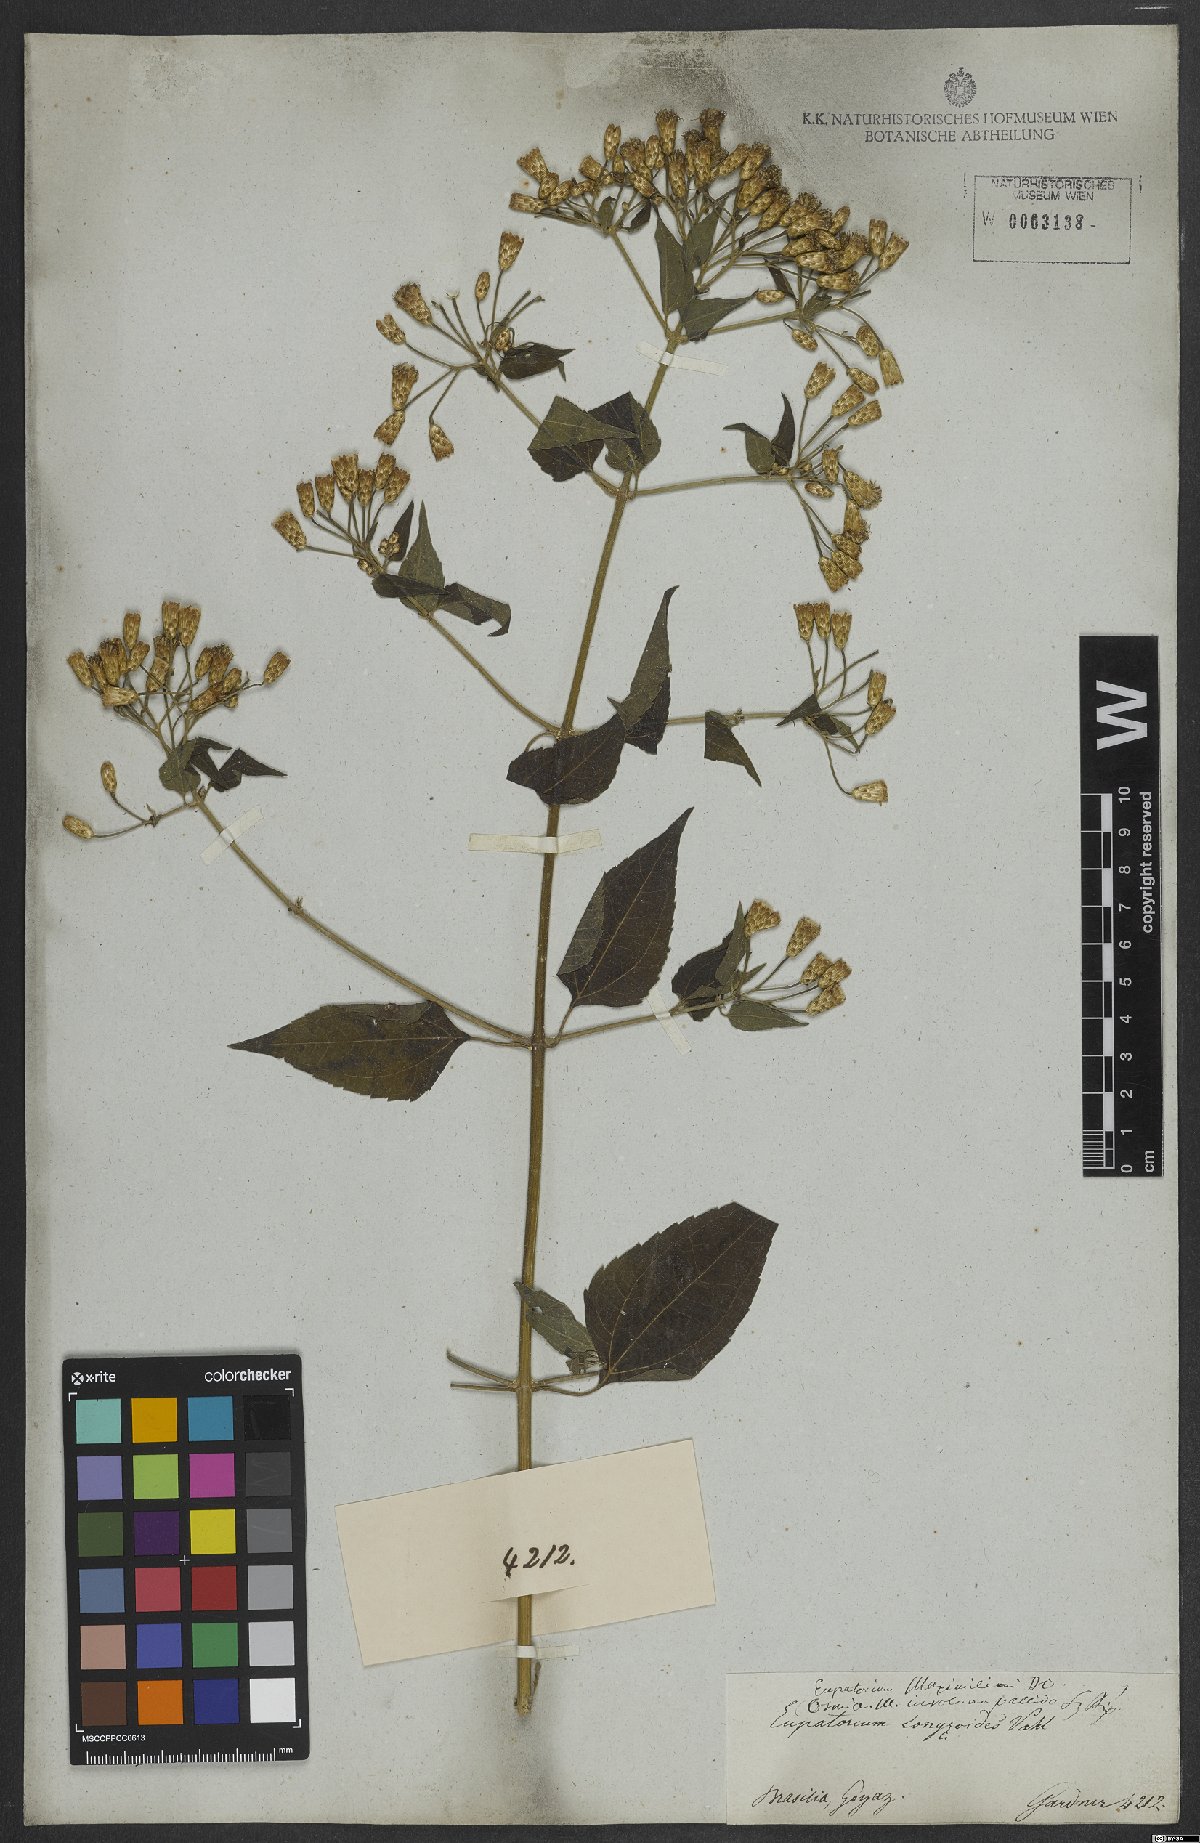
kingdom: Plantae
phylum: Tracheophyta
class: Magnoliopsida
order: Asterales
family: Asteraceae
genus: Chromolaena
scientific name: Chromolaena odorata
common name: Siamweed
